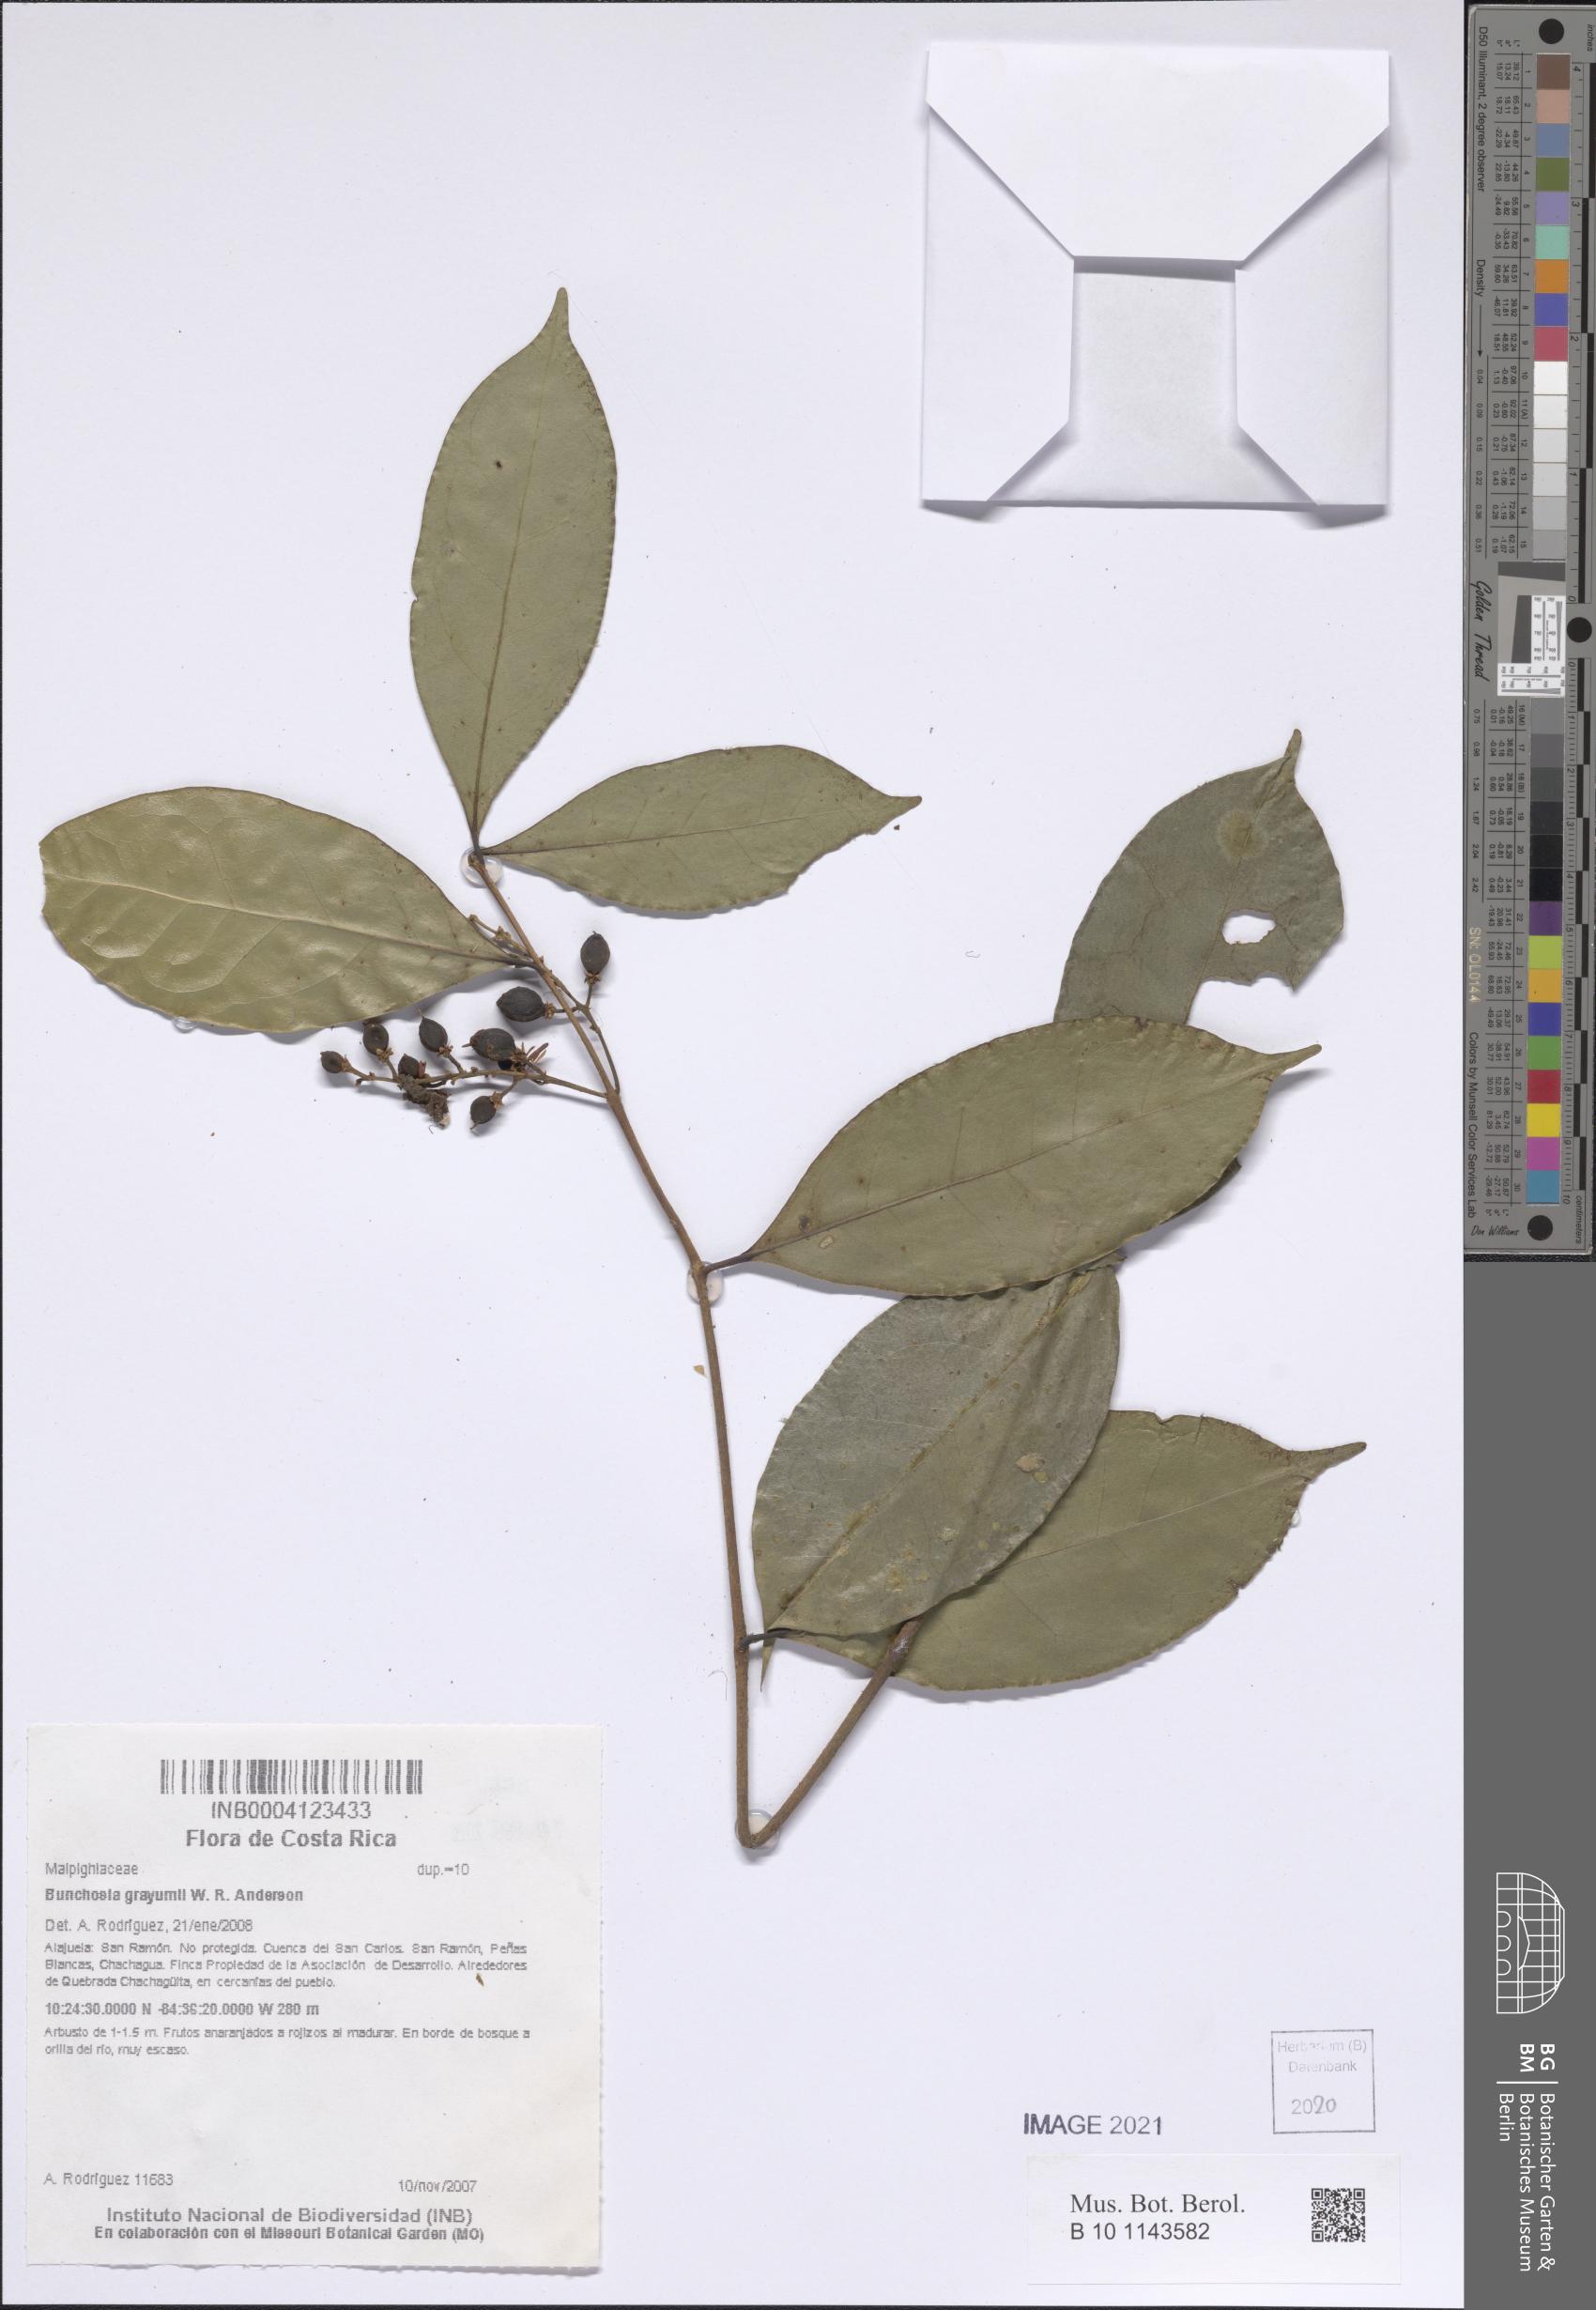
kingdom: Plantae
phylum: Tracheophyta
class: Magnoliopsida
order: Malpighiales
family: Malpighiaceae
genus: Bunchosia
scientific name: Bunchosia grayumii
